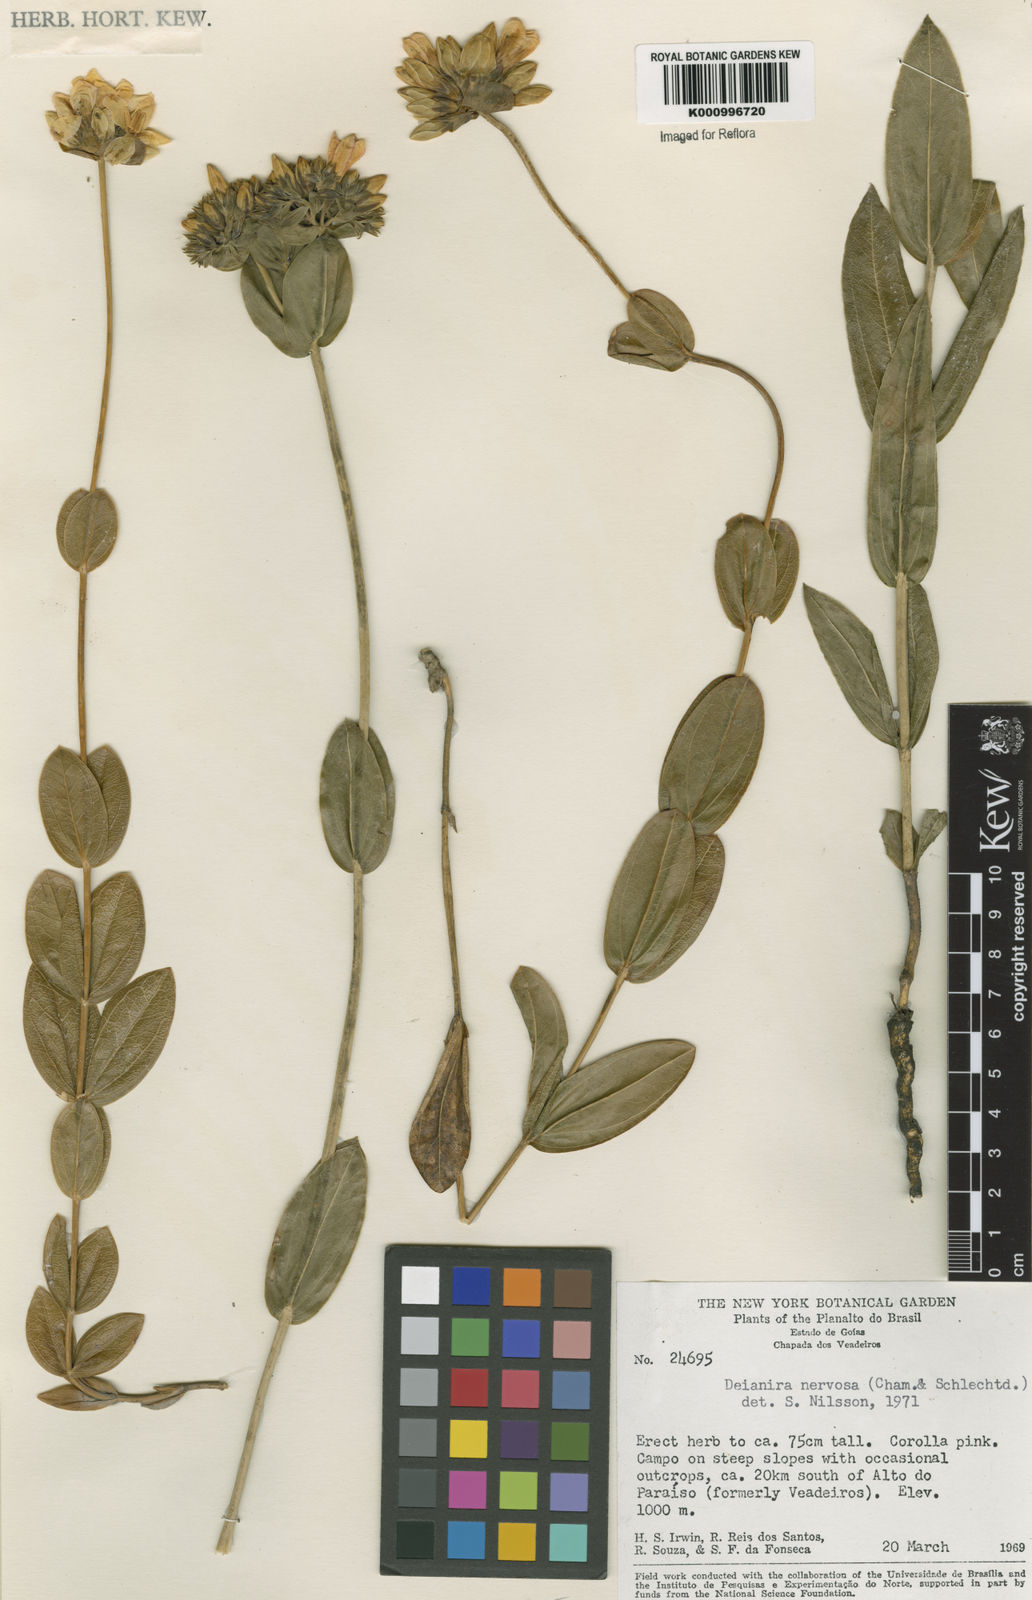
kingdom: Plantae
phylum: Tracheophyta
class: Magnoliopsida
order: Gentianales
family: Gentianaceae
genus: Deianira
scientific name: Deianira nervosa
